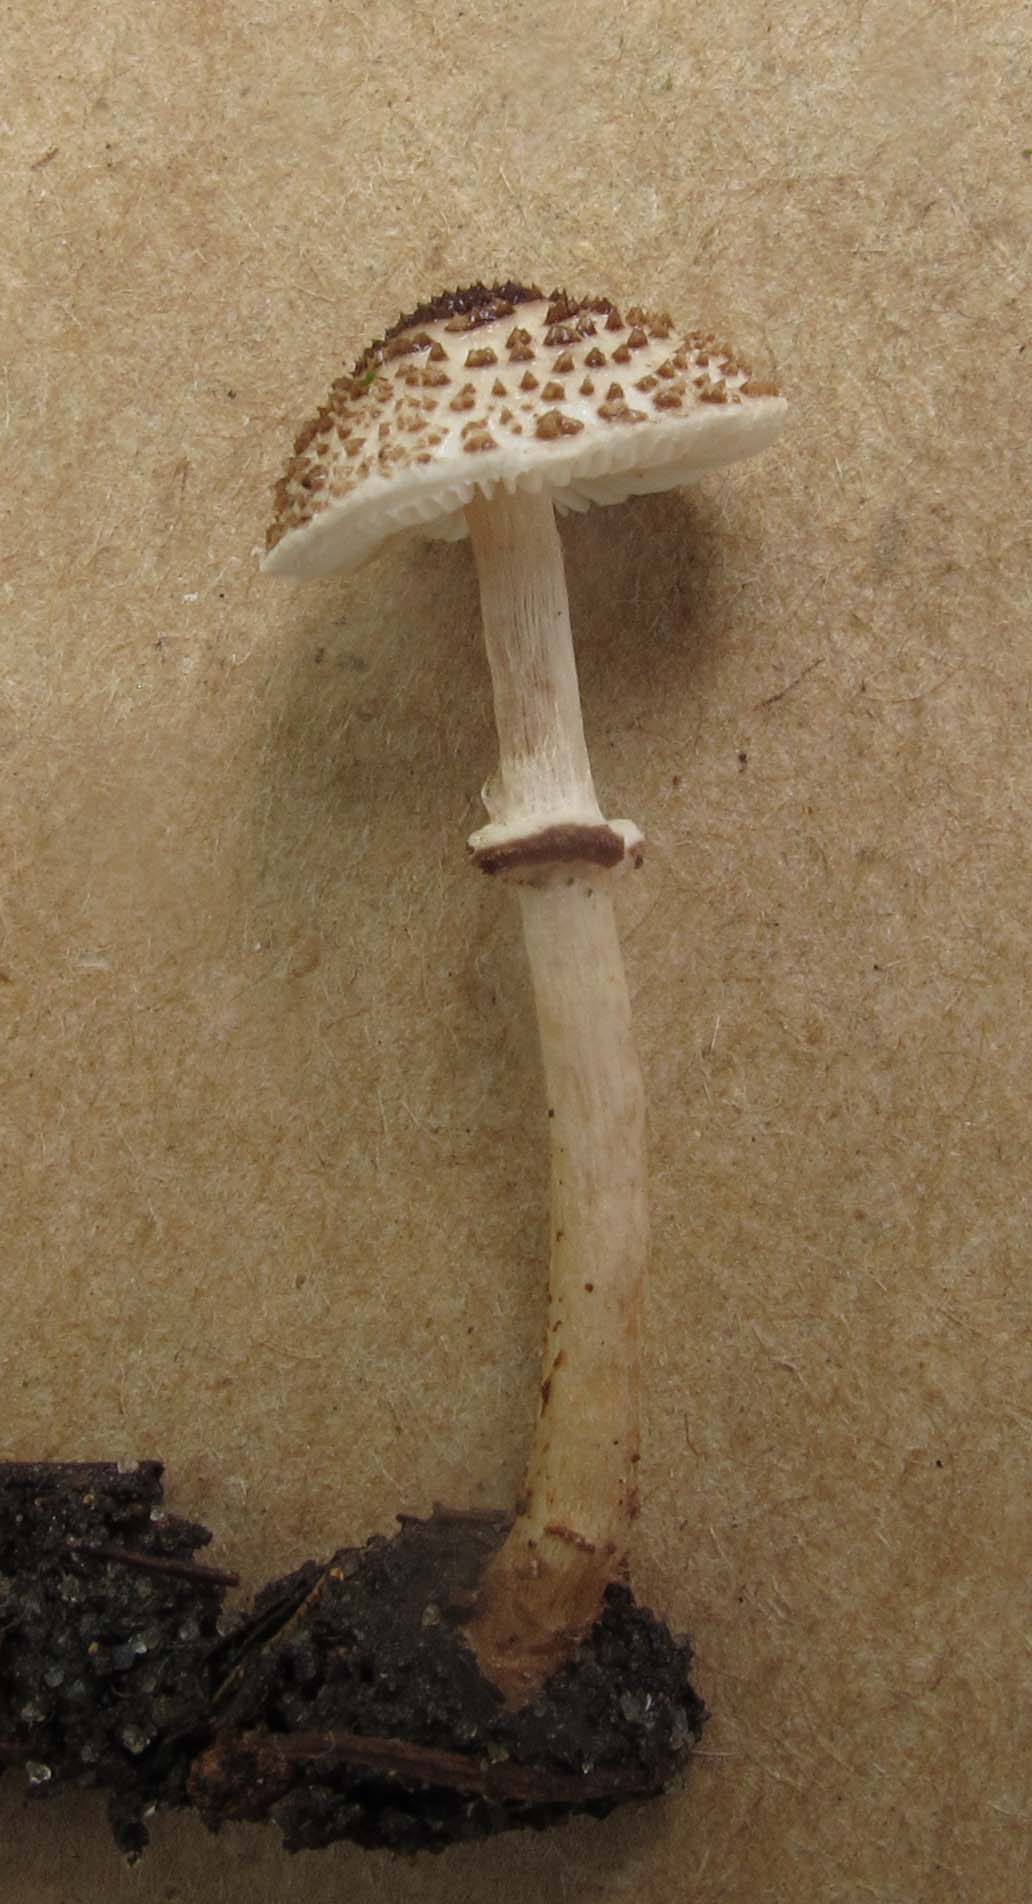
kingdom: Fungi
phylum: Basidiomycota
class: Agaricomycetes
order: Agaricales
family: Agaricaceae
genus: Lepiota
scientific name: Lepiota felina
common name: sortskællet parasolhat
